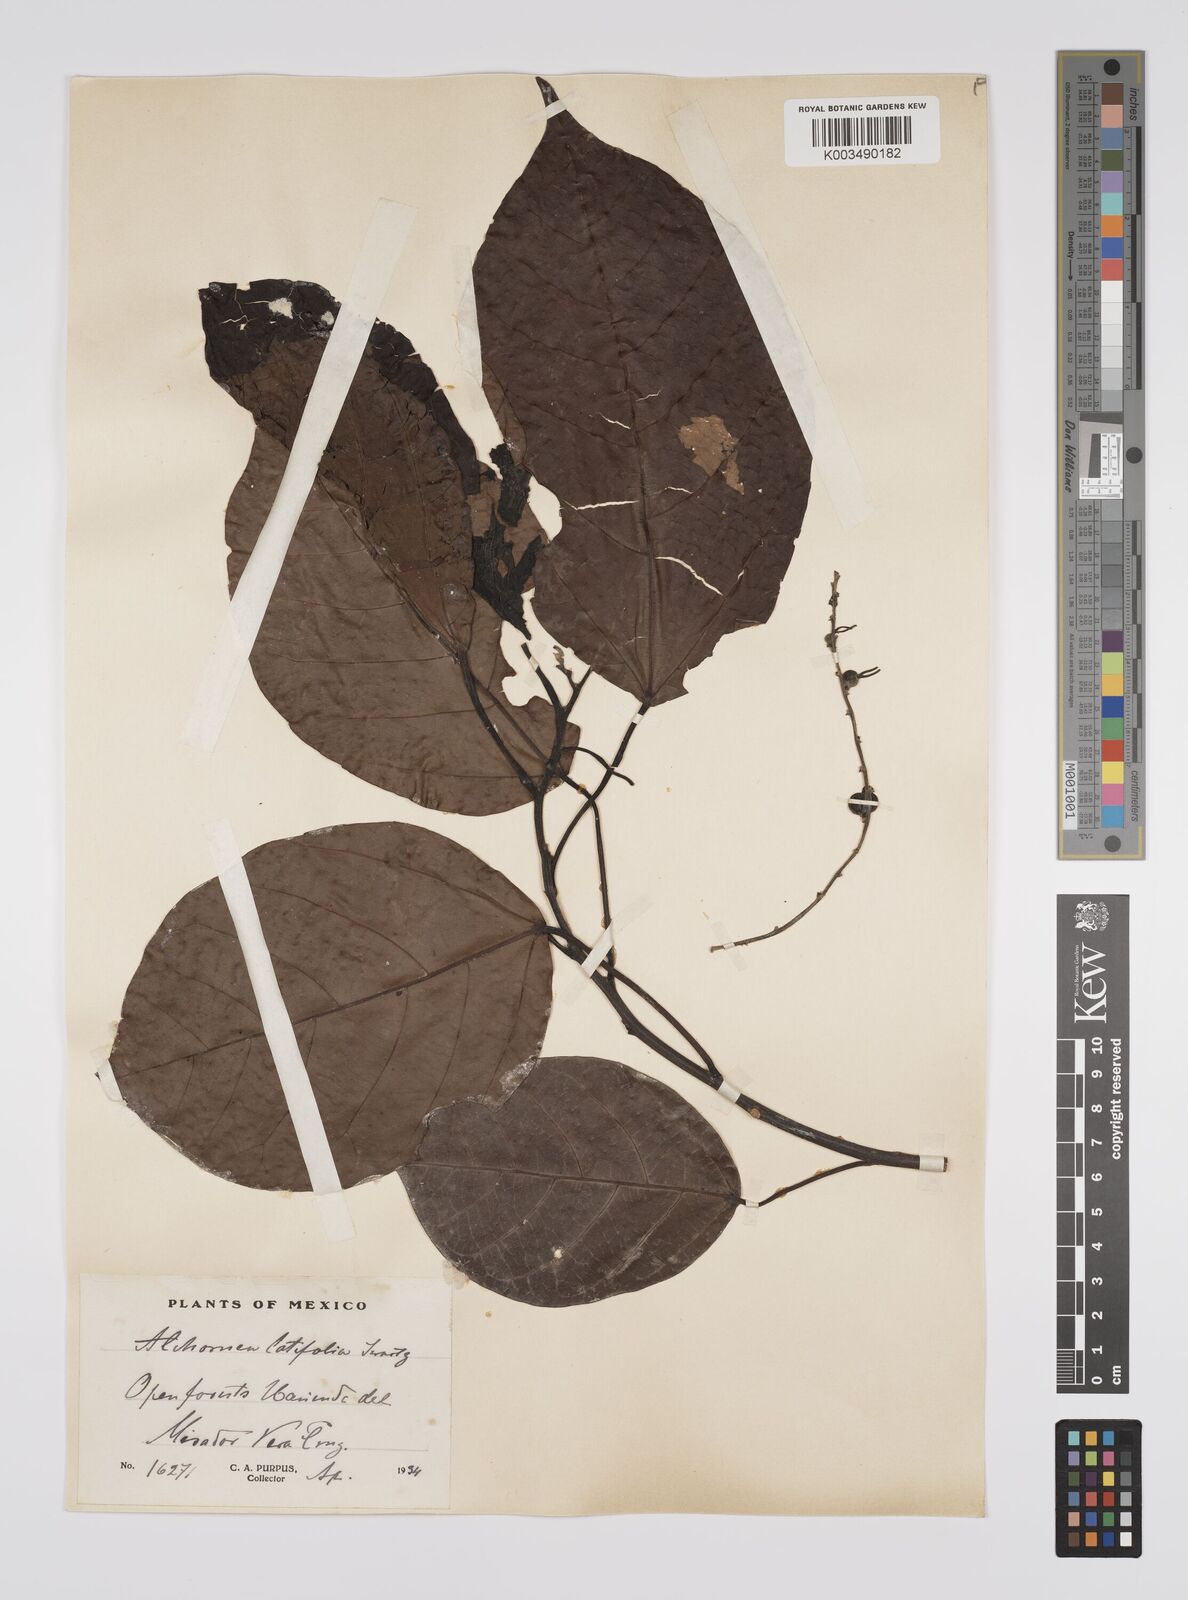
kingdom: Plantae
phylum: Tracheophyta
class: Magnoliopsida
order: Malpighiales
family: Euphorbiaceae
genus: Alchornea
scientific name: Alchornea latifolia
